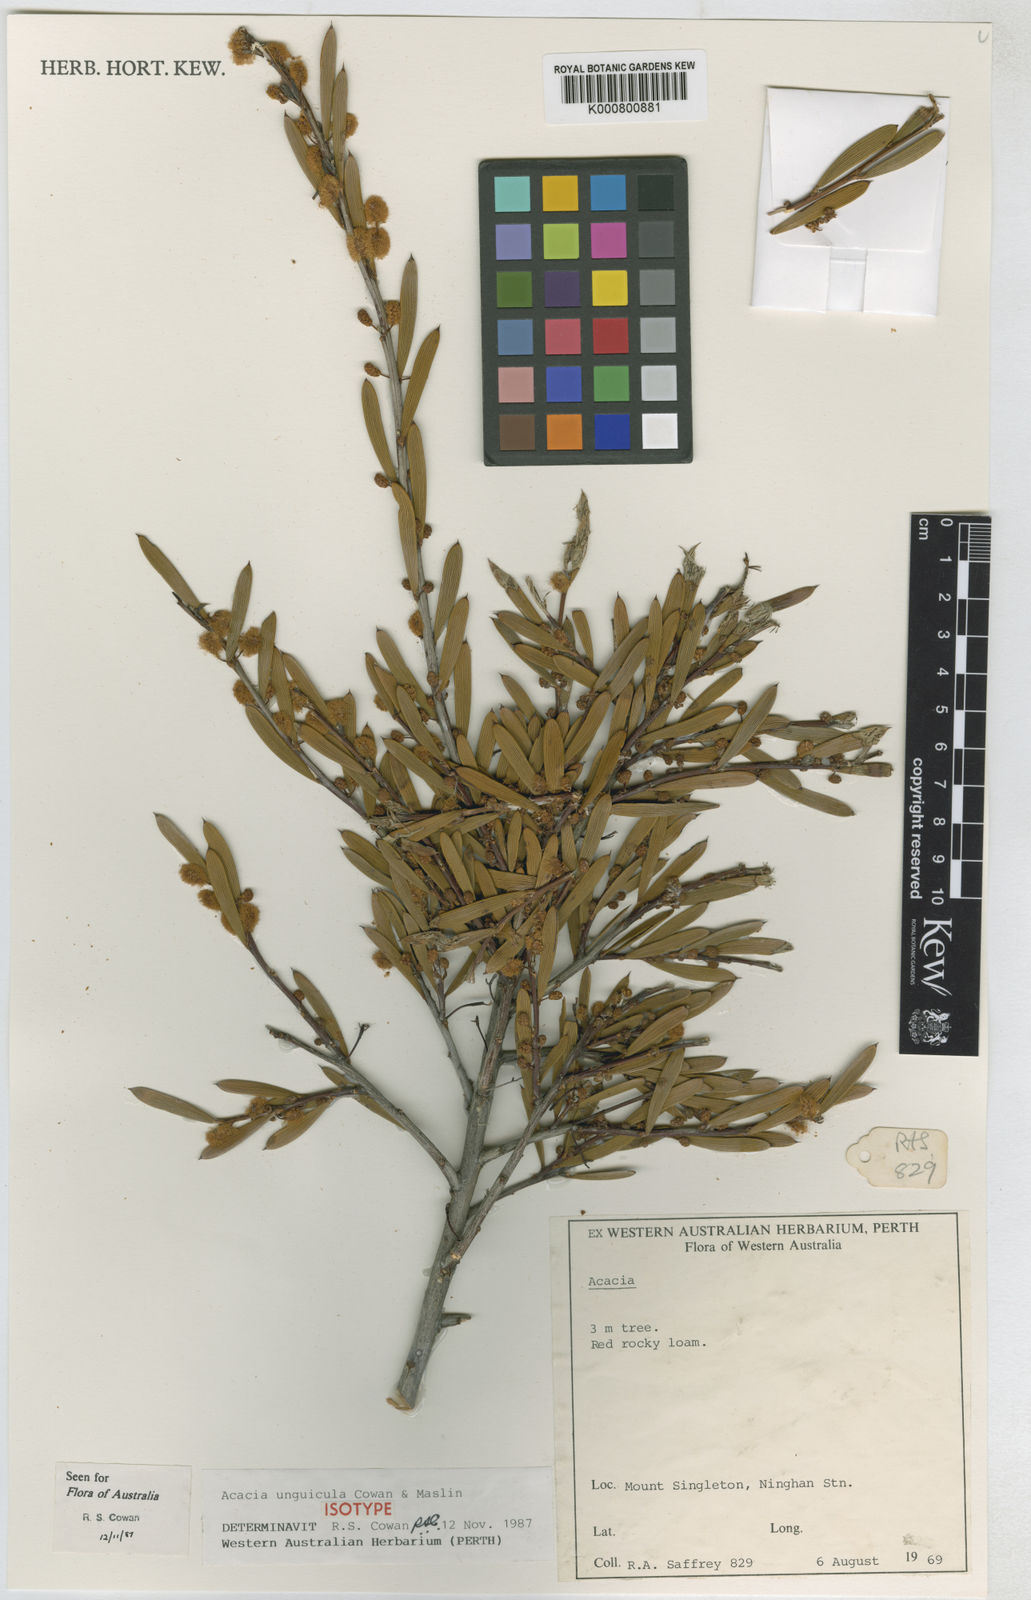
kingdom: Plantae
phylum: Tracheophyta
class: Magnoliopsida
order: Fabales
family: Fabaceae
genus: Acacia
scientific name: Acacia unguicula
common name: Nyingarn wattle
